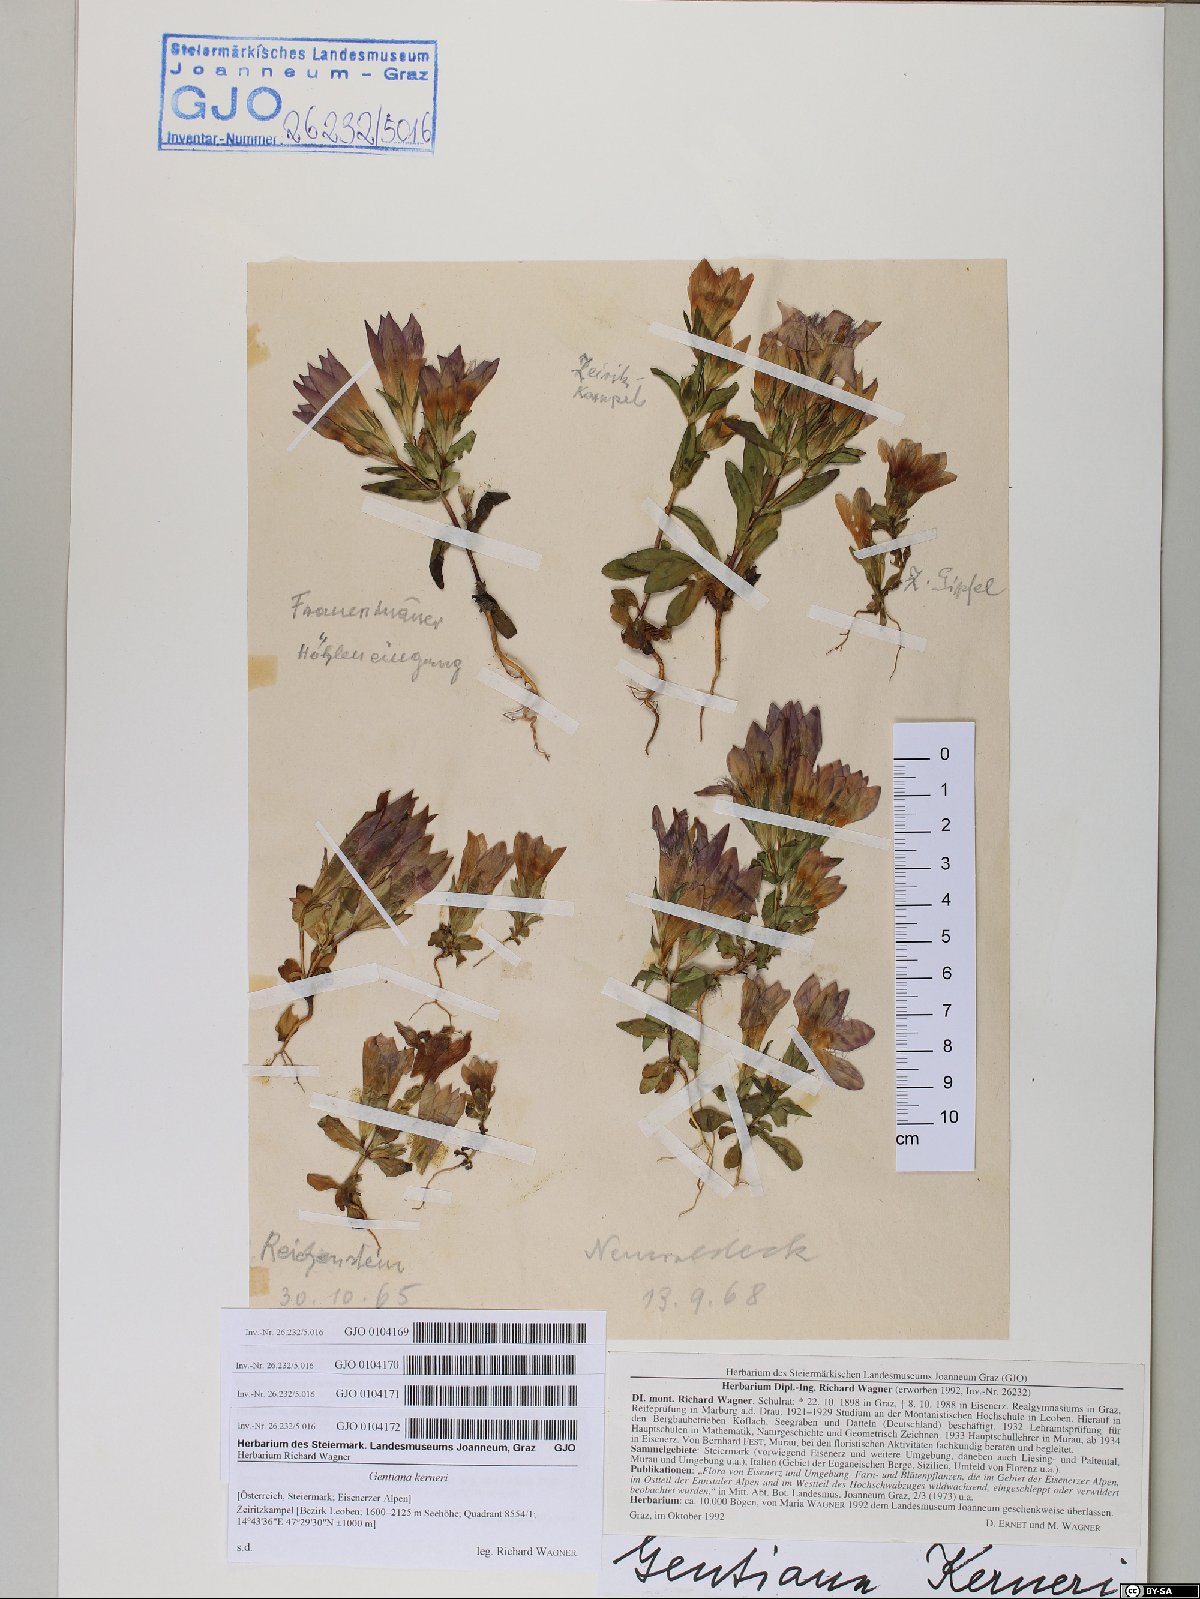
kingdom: Plantae
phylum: Tracheophyta
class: Magnoliopsida
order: Gentianales
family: Gentianaceae
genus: Gentianella
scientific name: Gentianella rhaetica
